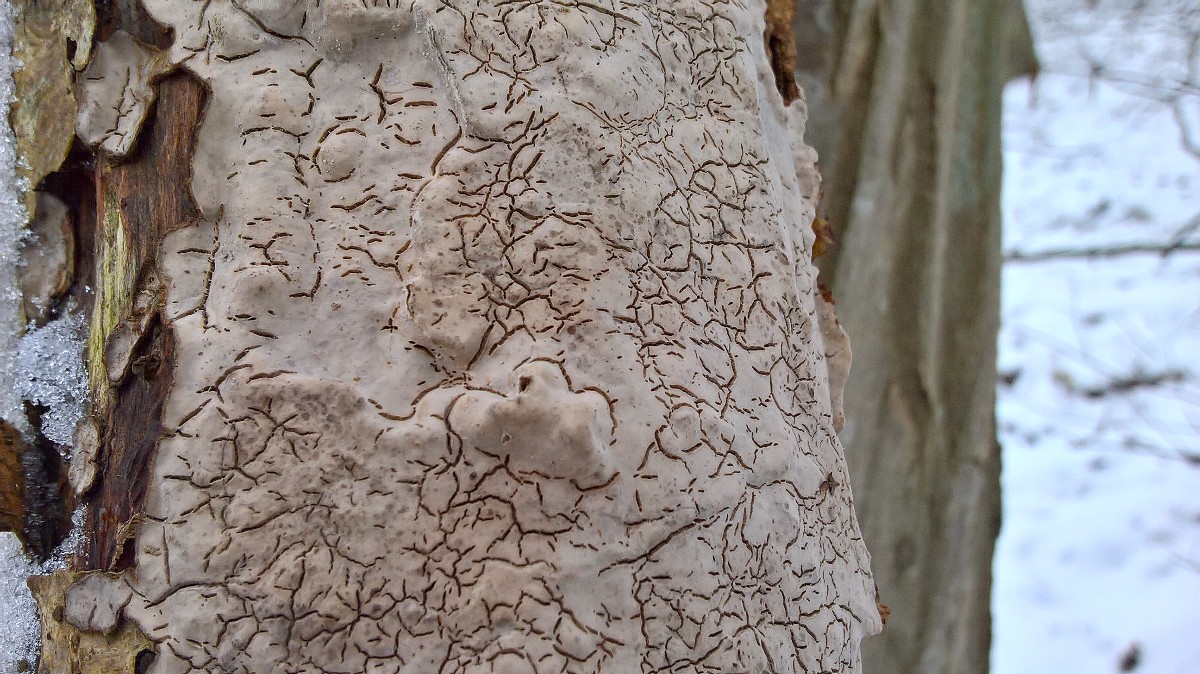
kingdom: Fungi
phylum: Basidiomycota
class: Agaricomycetes
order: Russulales
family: Stereaceae
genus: Stereum
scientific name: Stereum rugosum
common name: rynket lædersvamp
